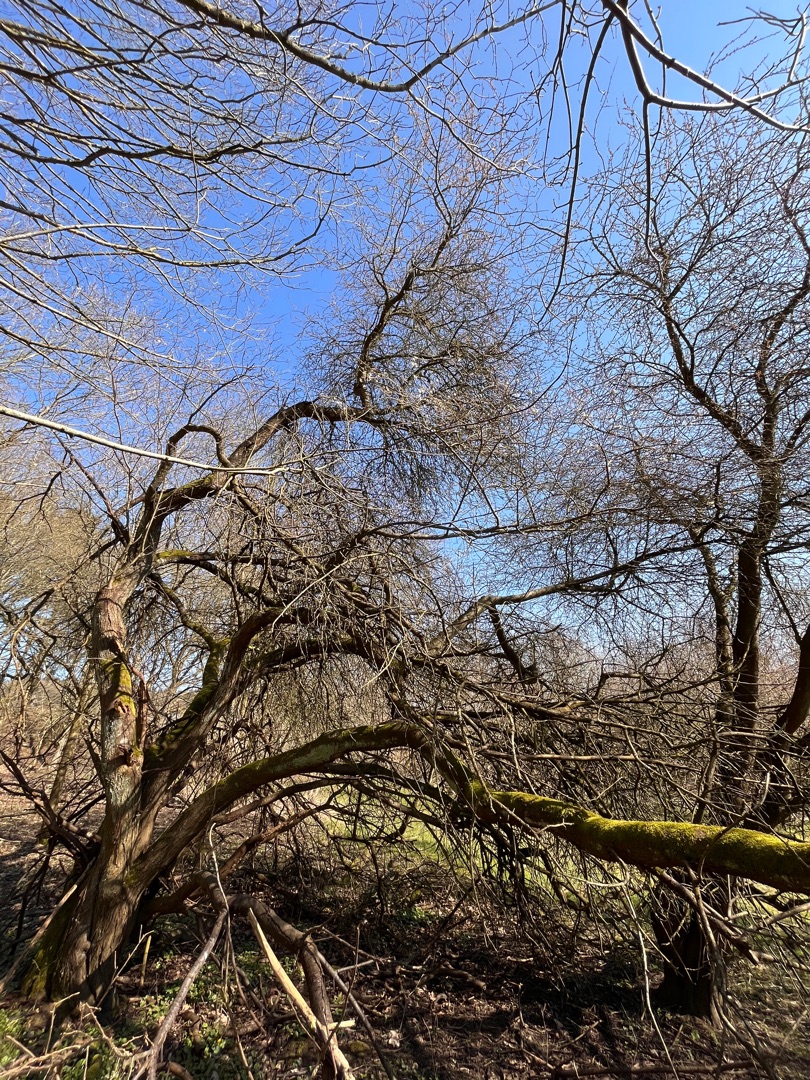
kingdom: Plantae
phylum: Tracheophyta
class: Magnoliopsida
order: Rosales
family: Rosaceae
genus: Prunus
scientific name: Prunus cerasifera
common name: Mirabel
